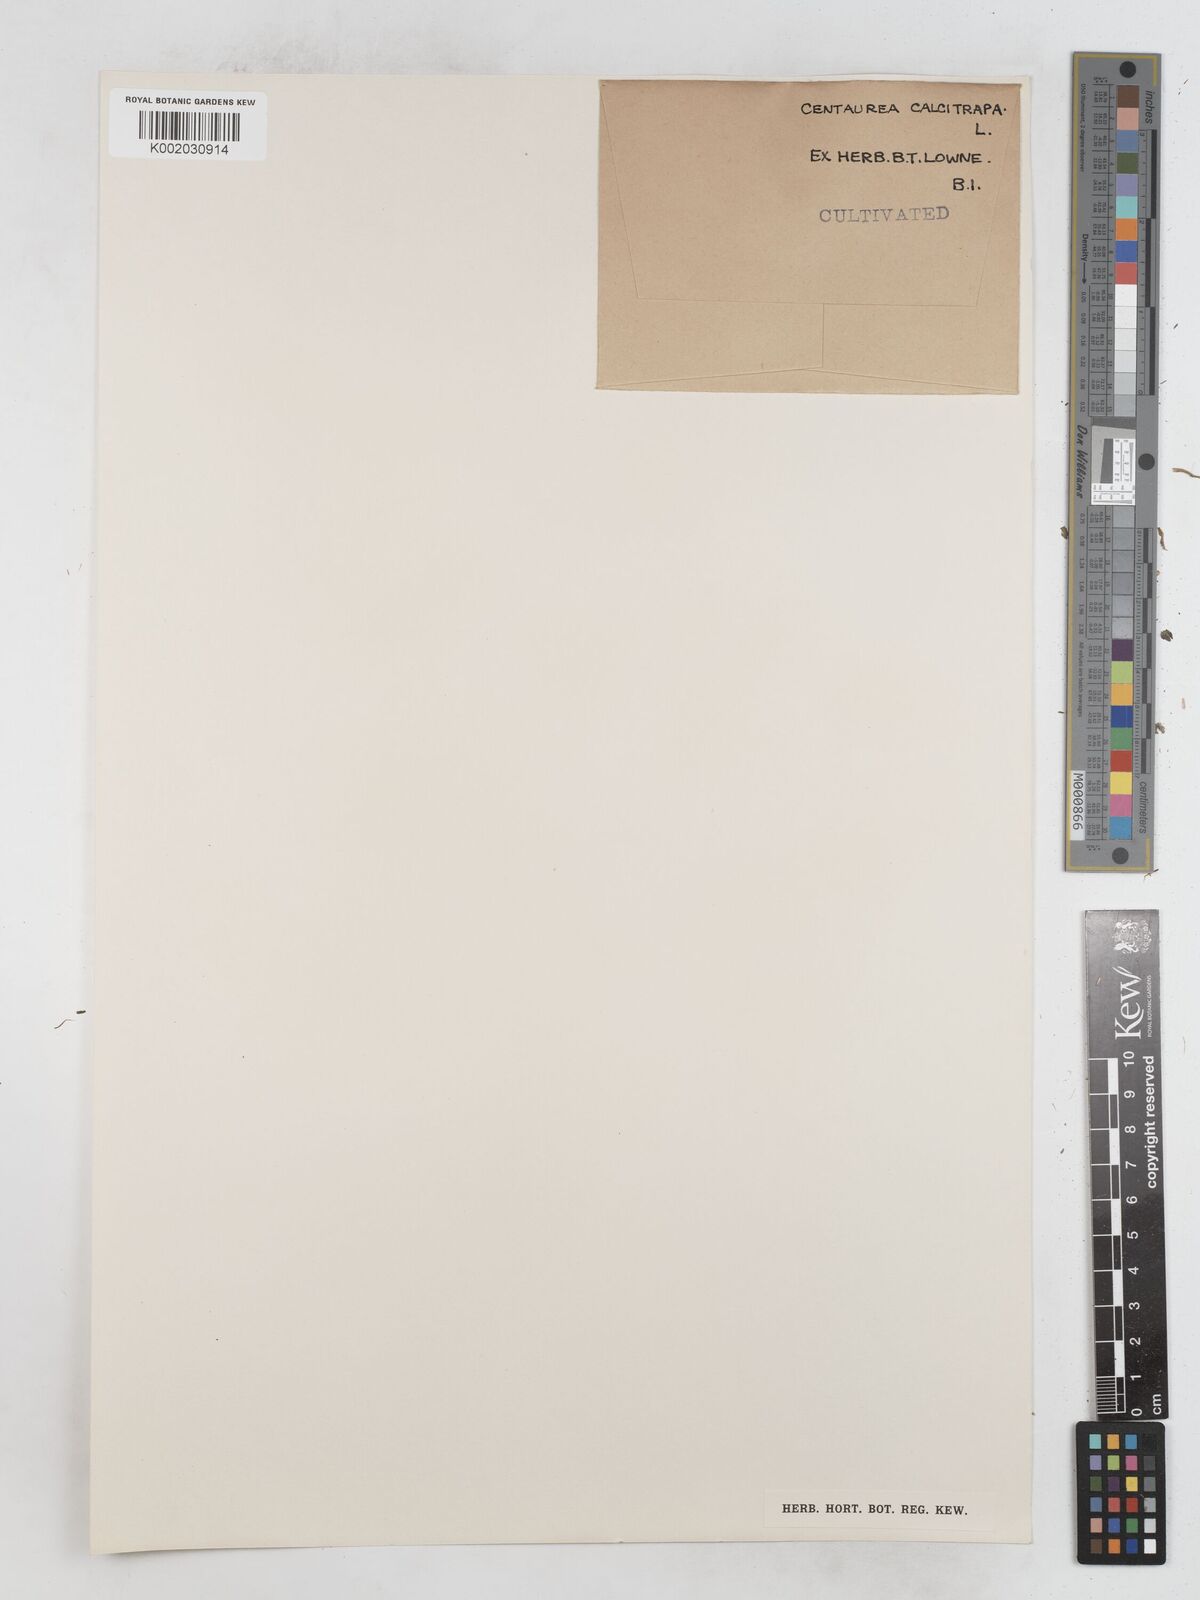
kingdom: Plantae
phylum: Tracheophyta
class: Magnoliopsida
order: Asterales
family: Asteraceae
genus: Centaurea
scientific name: Centaurea calcitrapa
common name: Red star-thistle
